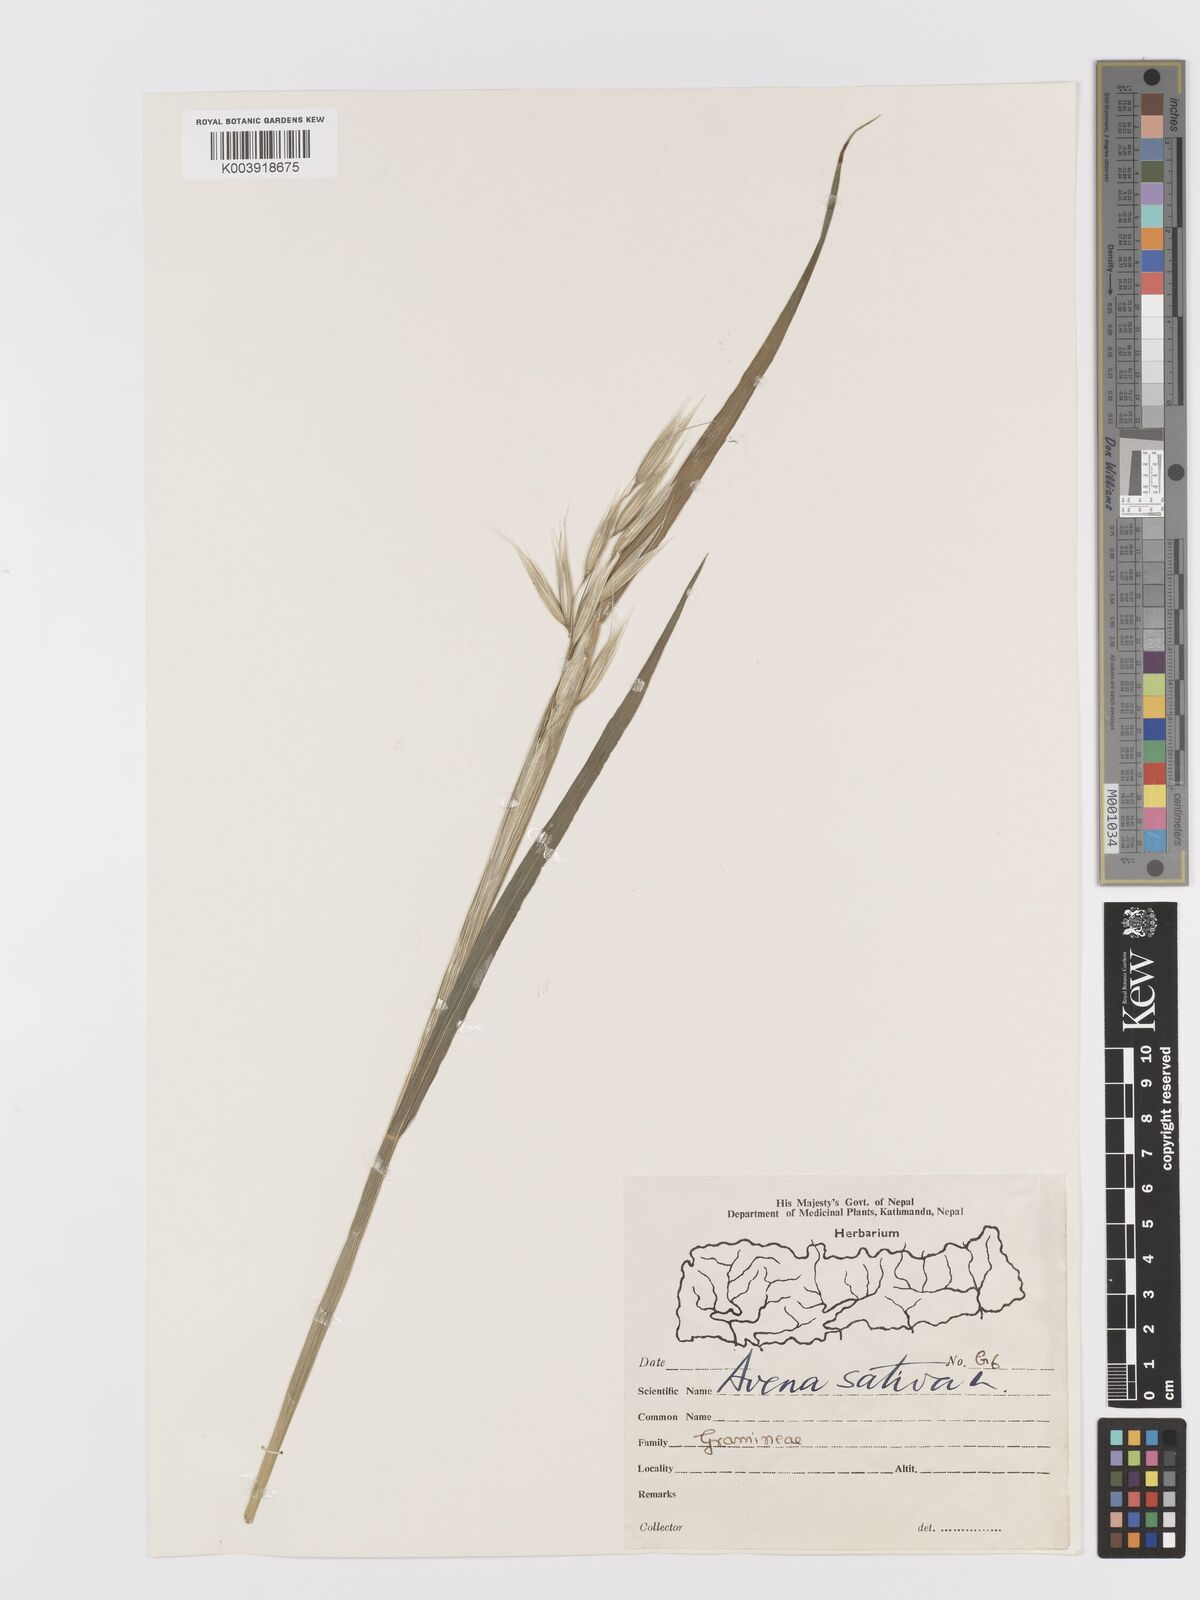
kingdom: Plantae
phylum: Tracheophyta
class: Liliopsida
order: Poales
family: Poaceae
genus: Avena
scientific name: Avena sativa
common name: Oat
